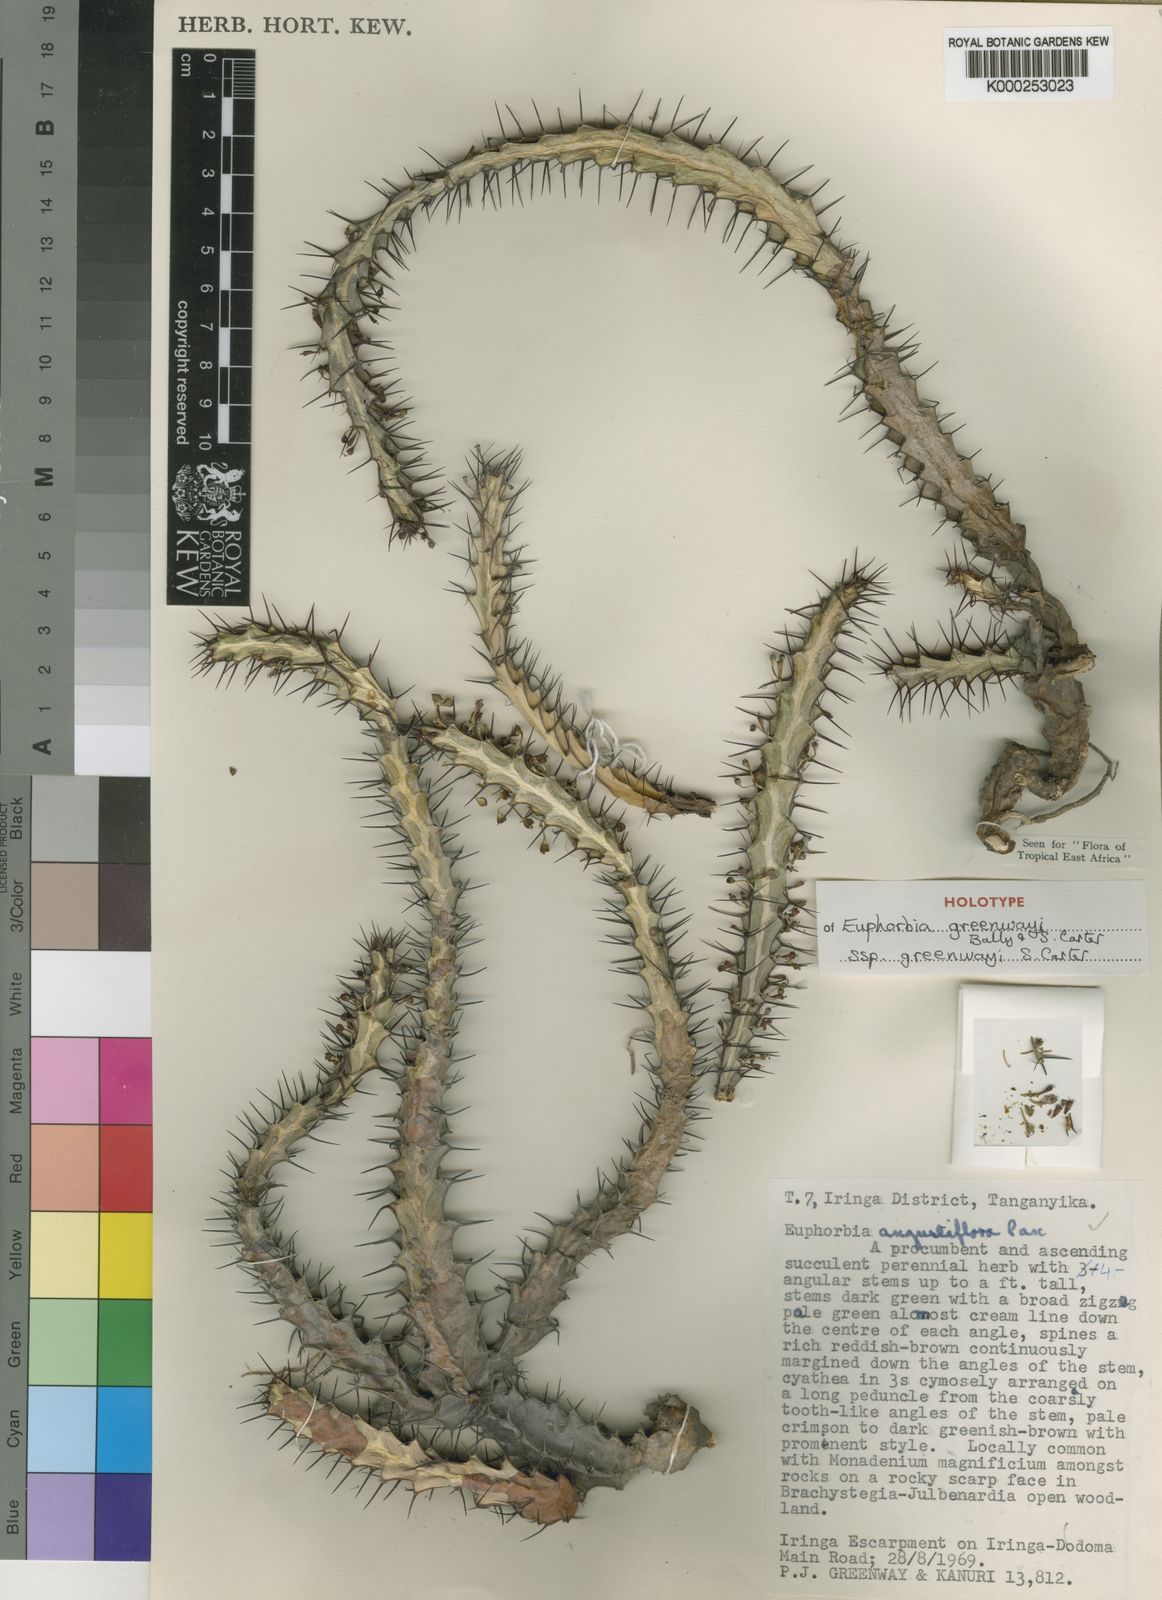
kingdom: Plantae
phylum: Tracheophyta
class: Magnoliopsida
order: Malpighiales
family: Euphorbiaceae
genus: Euphorbia
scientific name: Euphorbia greenwayi
